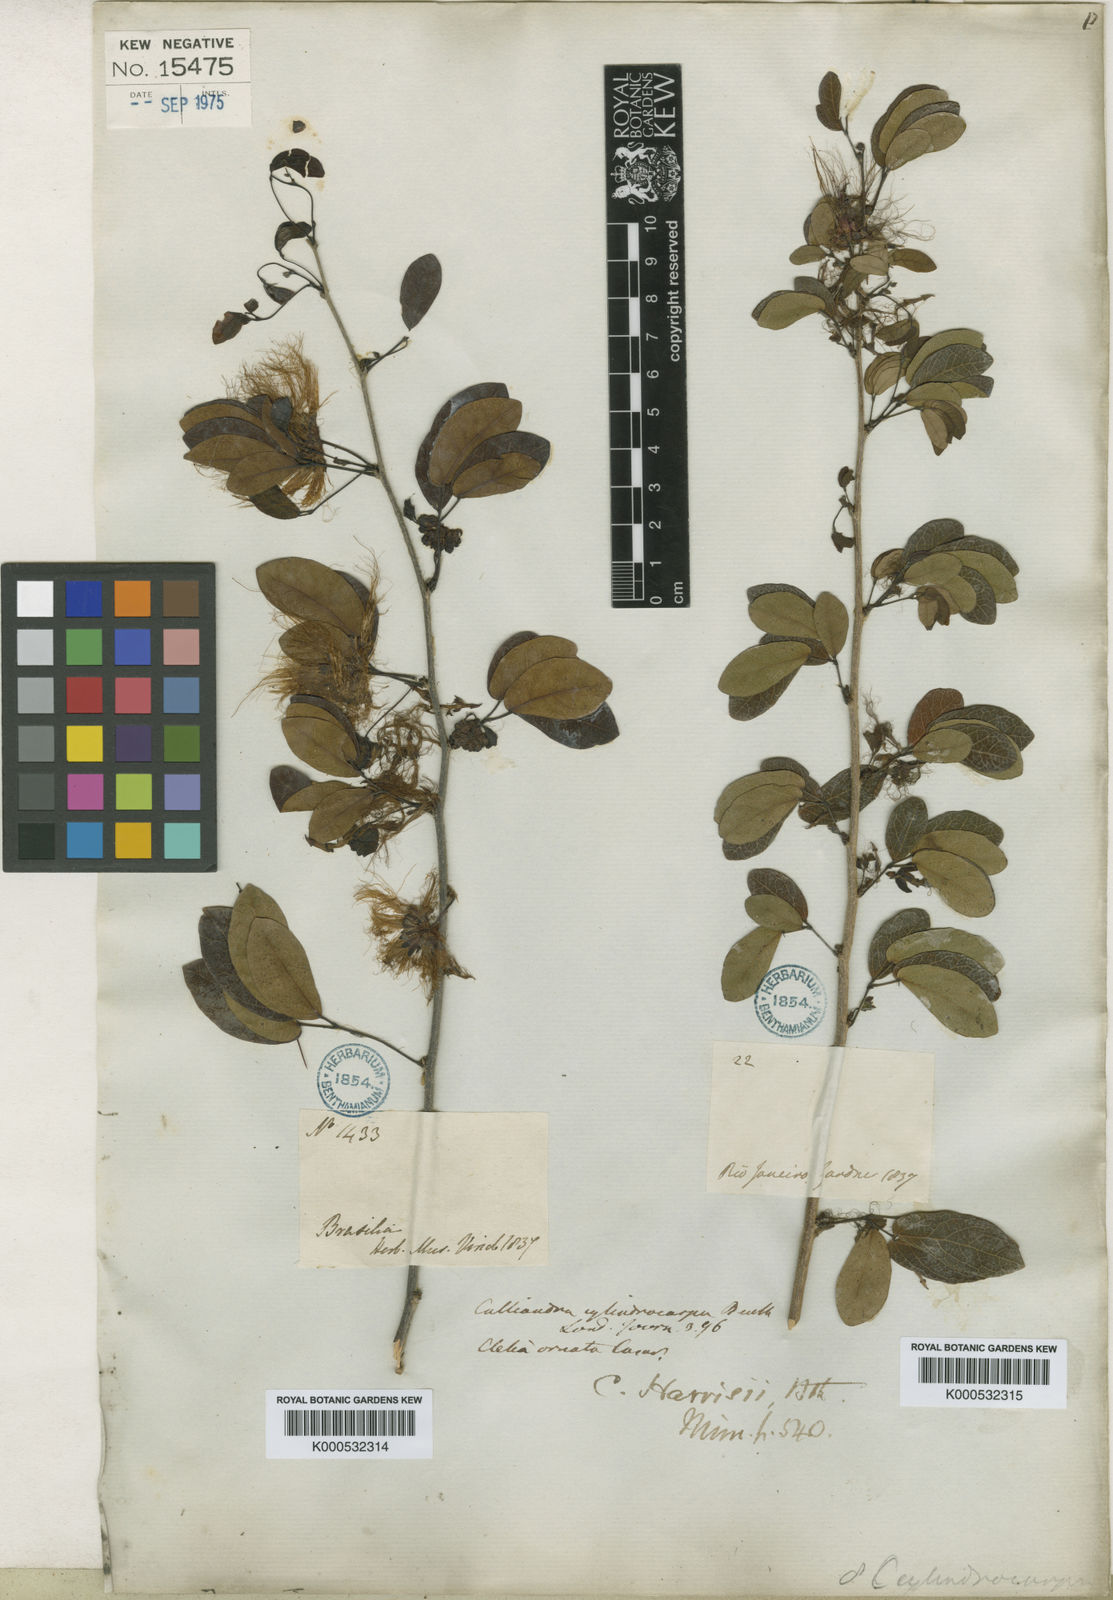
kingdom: Plantae
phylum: Tracheophyta
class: Magnoliopsida
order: Fabales
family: Fabaceae
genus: Calliandra
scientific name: Calliandra harrisii
